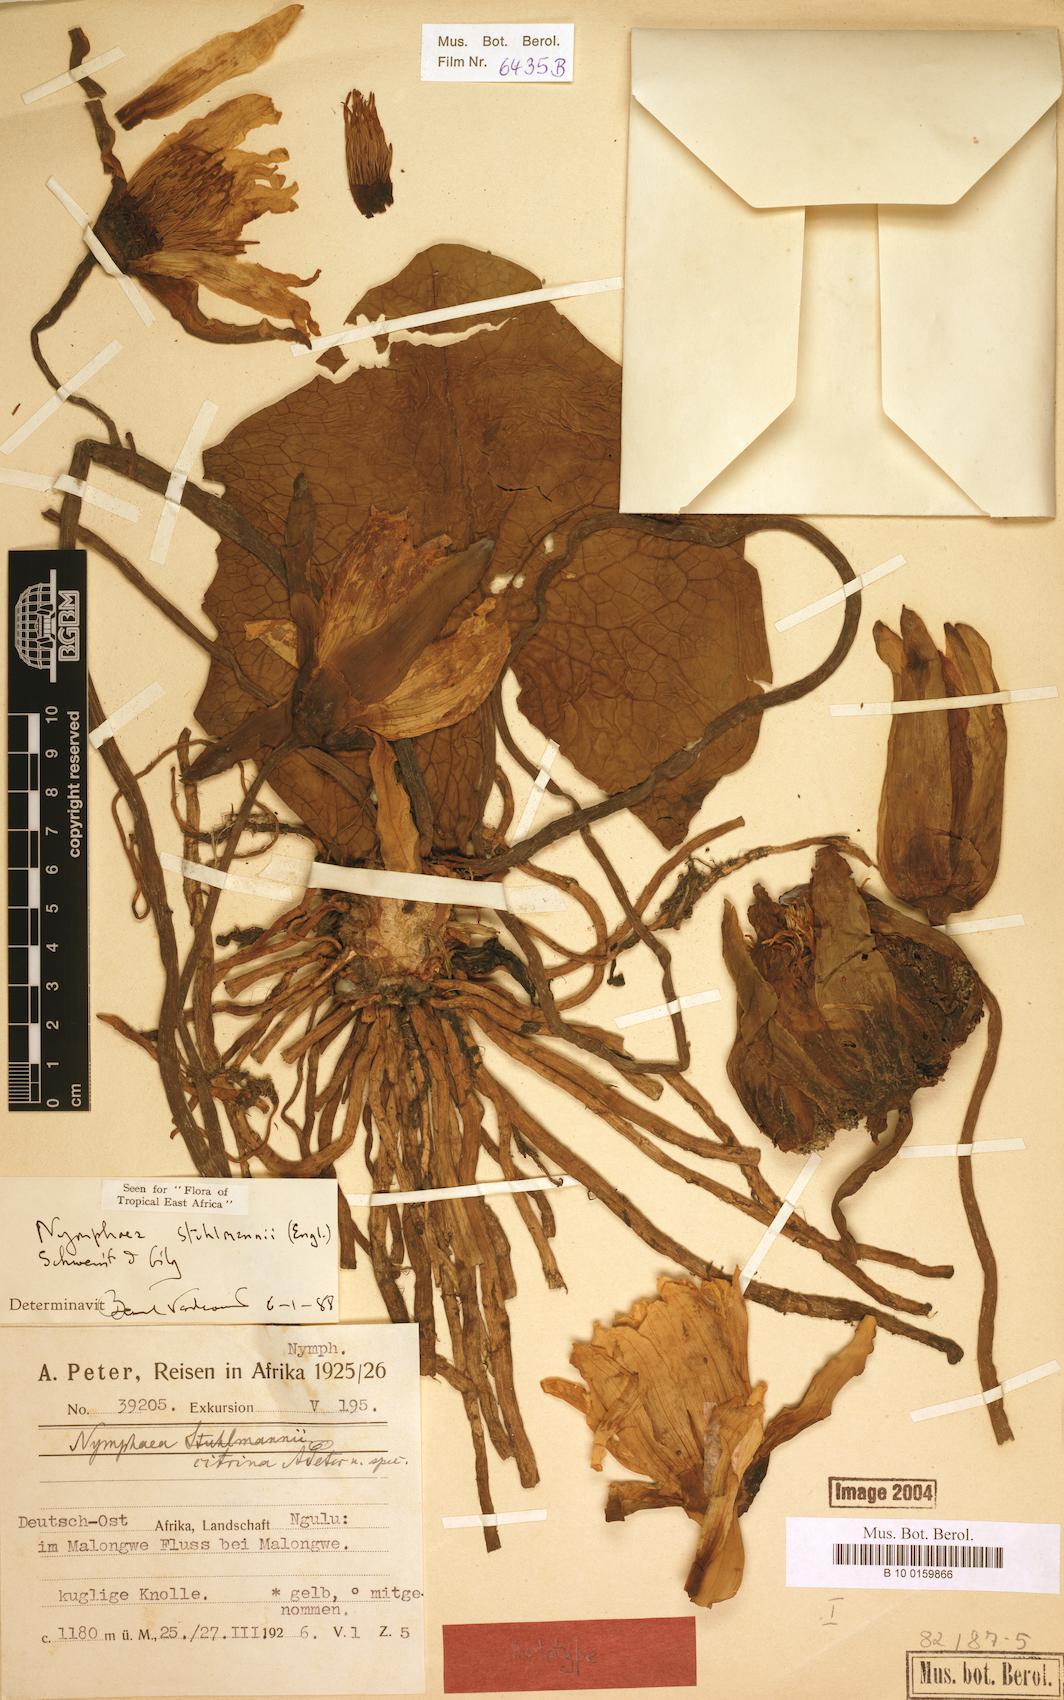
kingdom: Plantae
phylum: Tracheophyta
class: Magnoliopsida
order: Nymphaeales
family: Nymphaeaceae
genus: Nymphaea
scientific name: Nymphaea stuhlmannii
